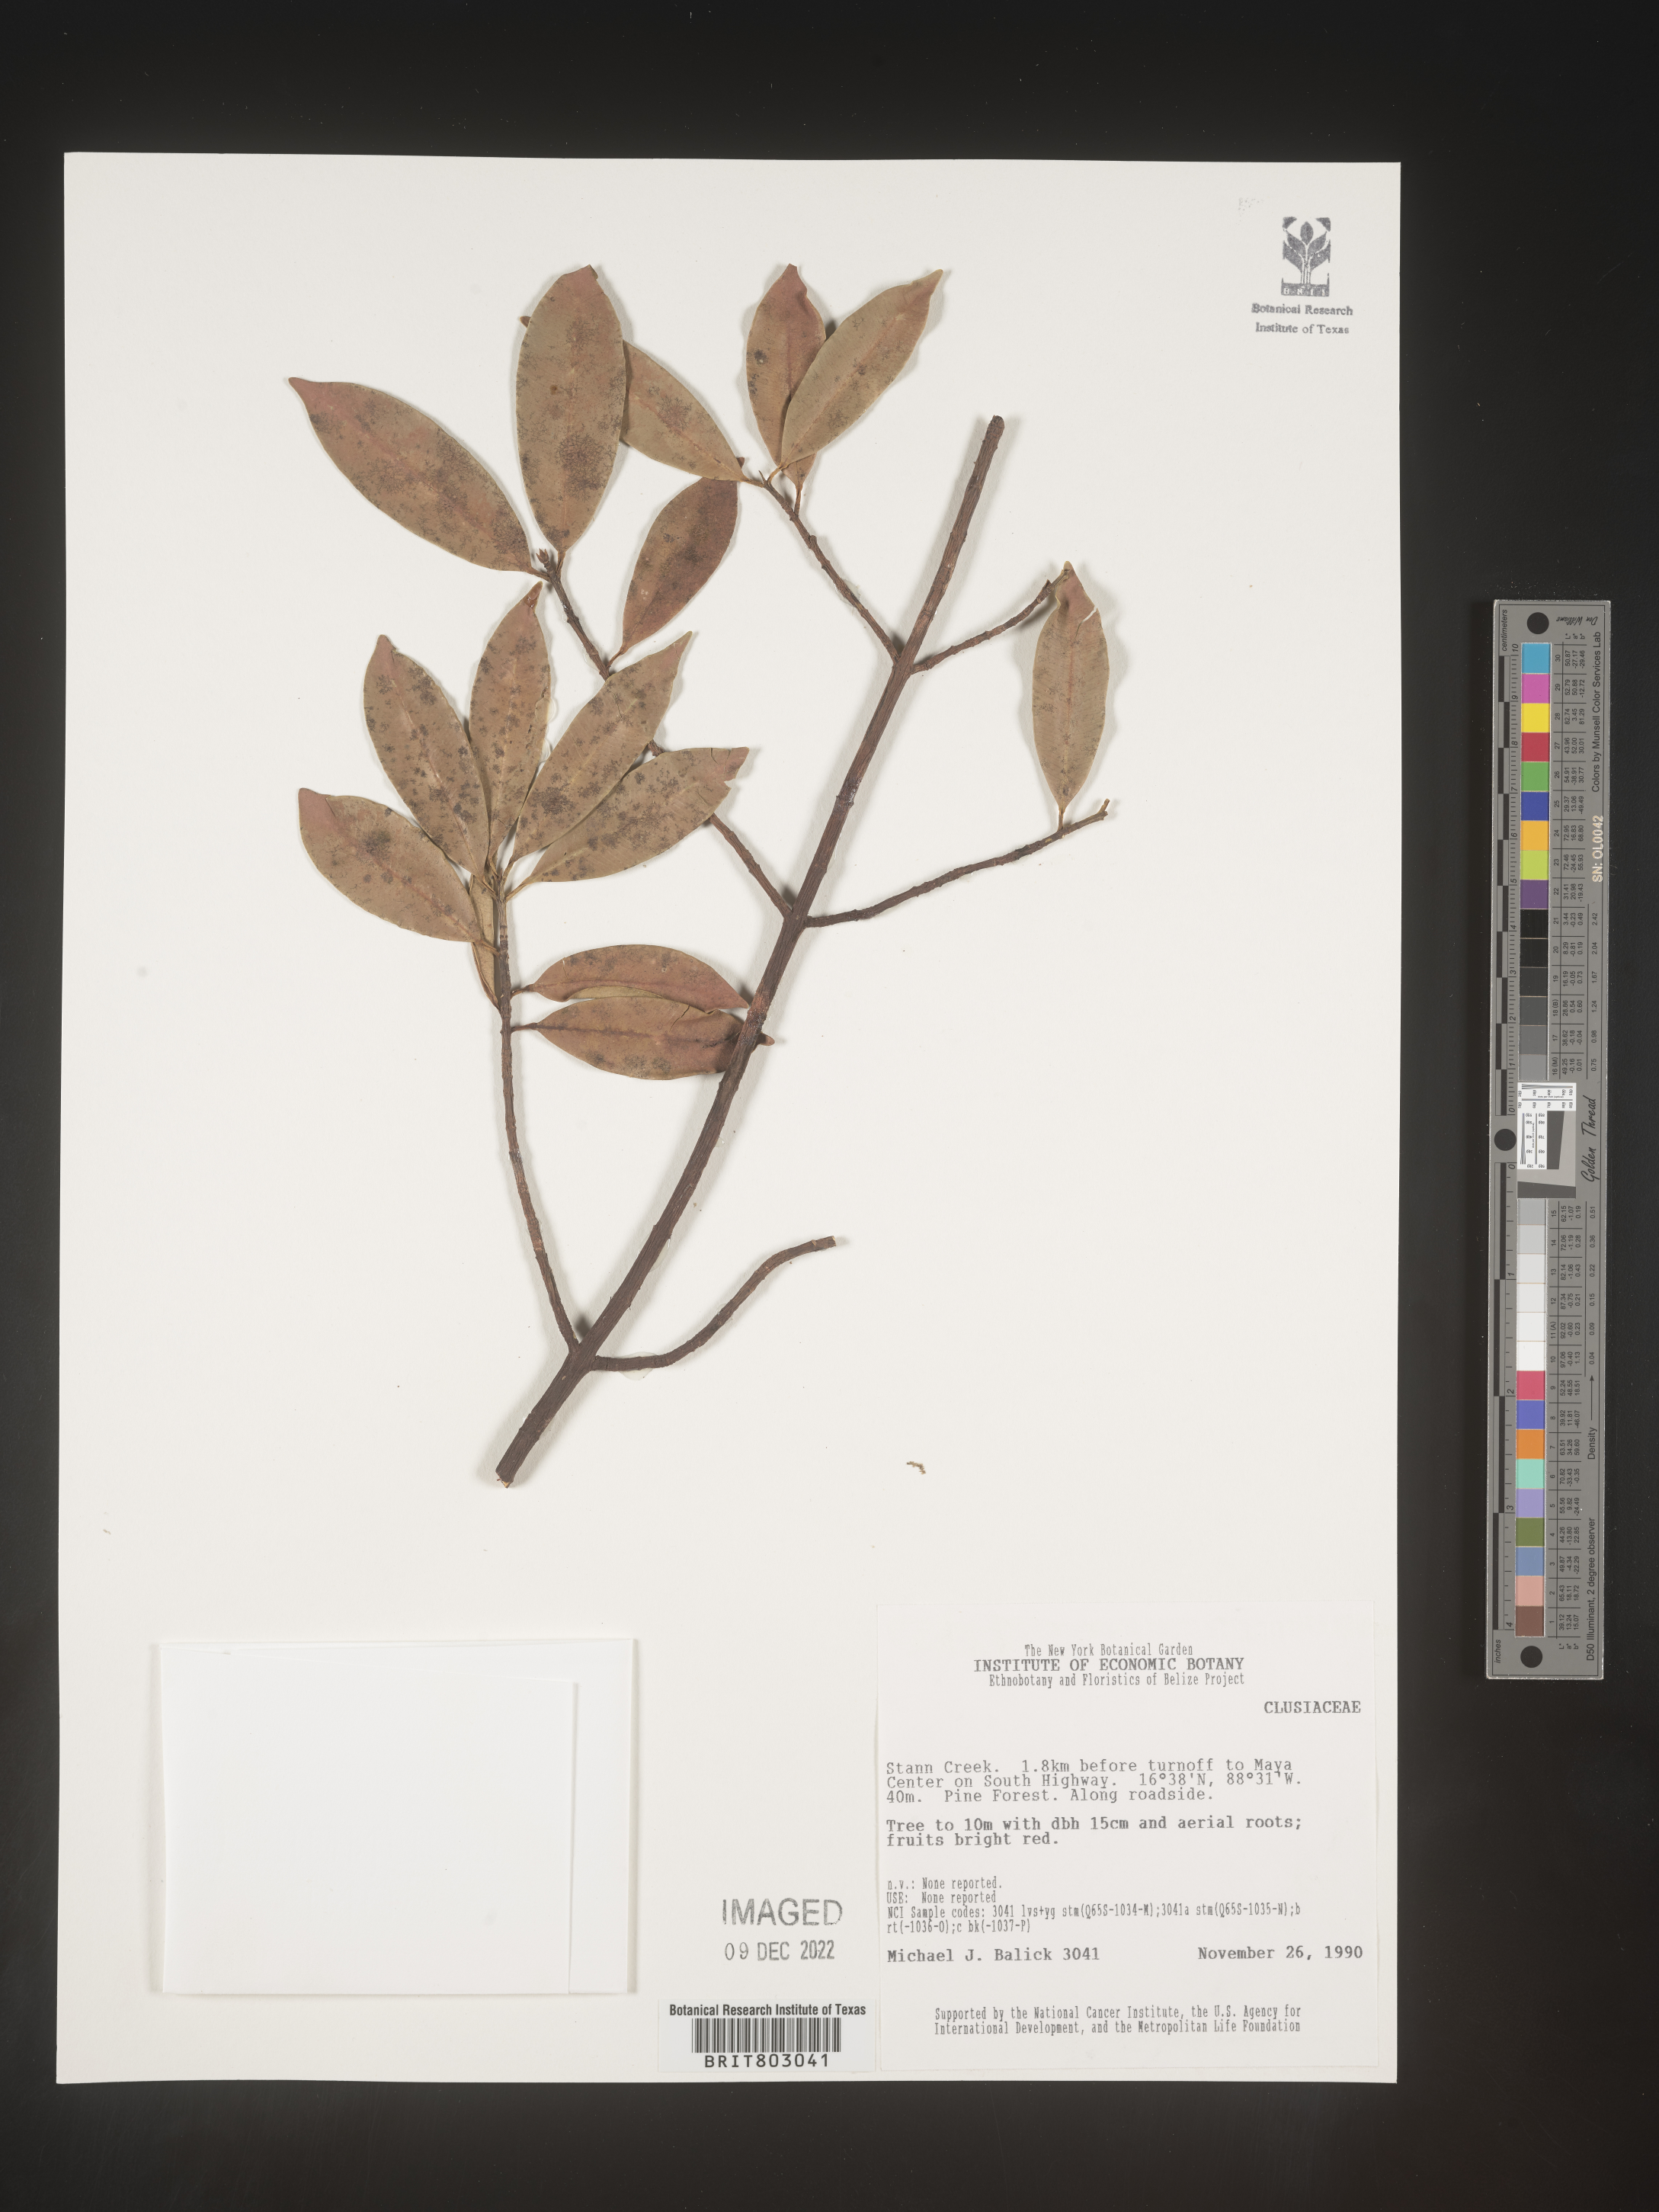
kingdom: Plantae
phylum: Tracheophyta
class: Magnoliopsida
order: Malpighiales
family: Clusiaceae
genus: Symphonia
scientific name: Symphonia
